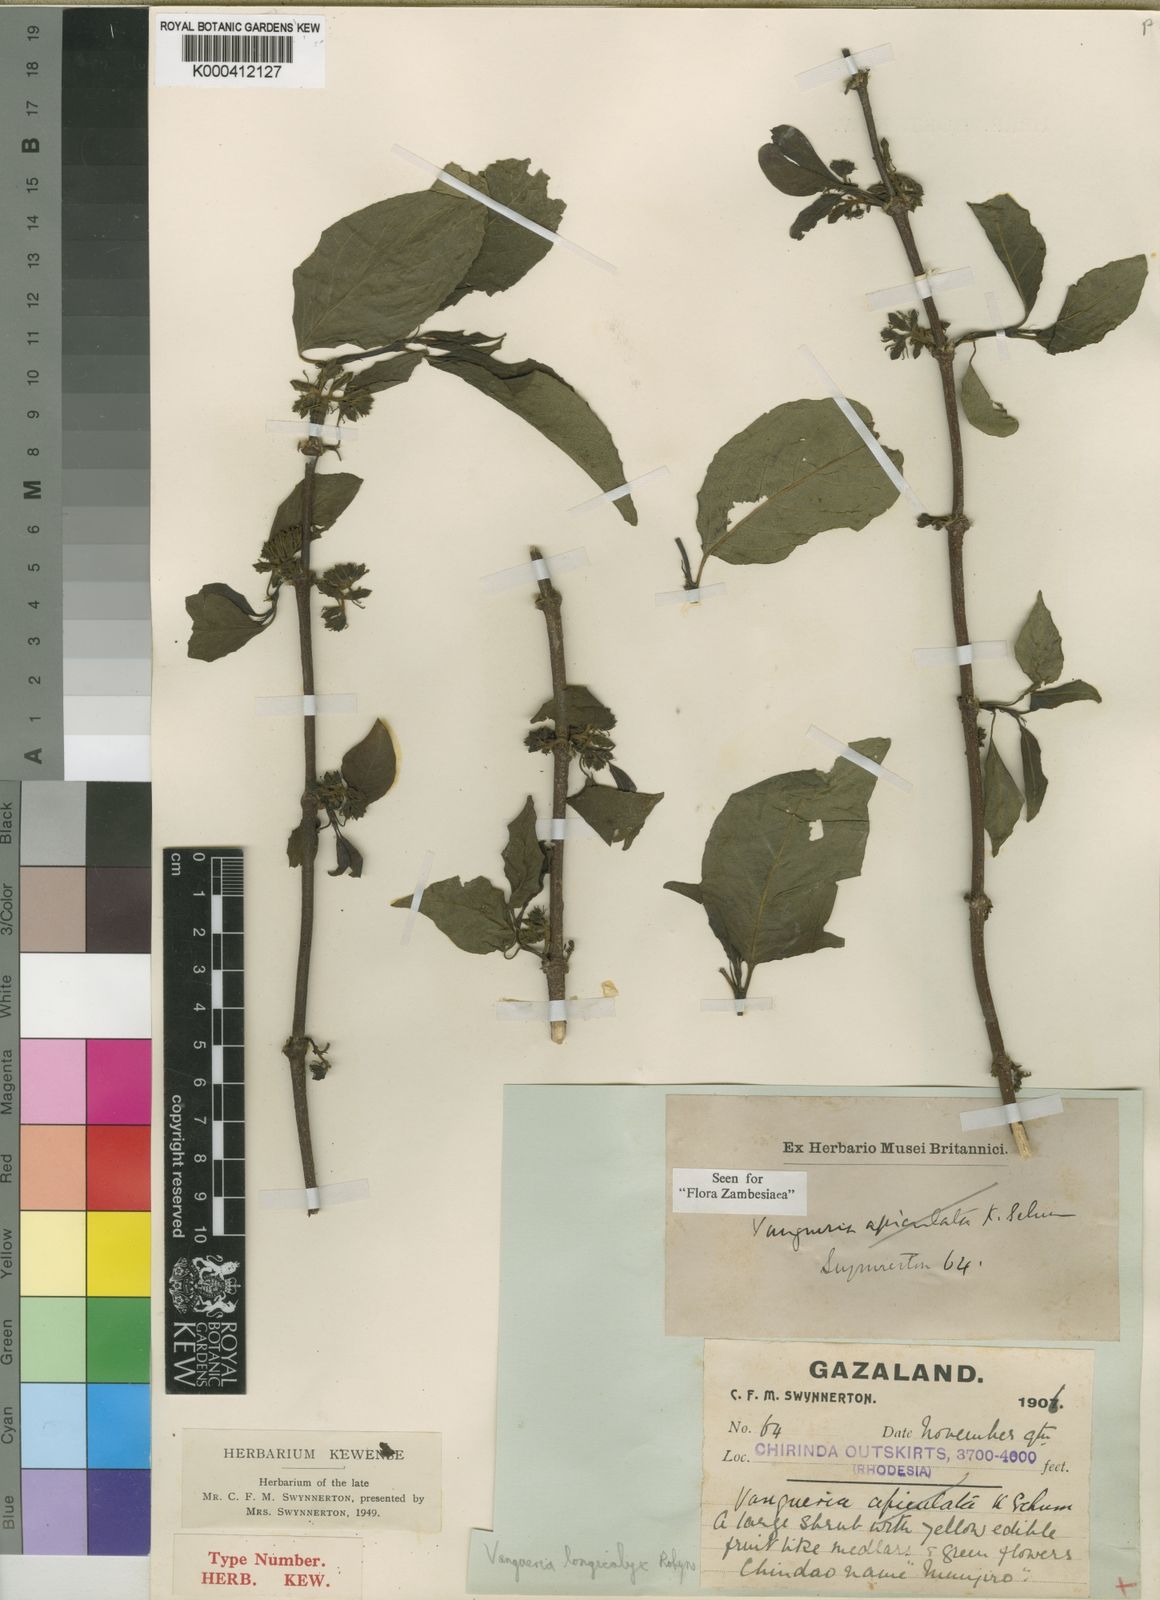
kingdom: Plantae
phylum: Tracheophyta
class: Magnoliopsida
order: Gentianales
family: Rubiaceae
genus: Vangueria
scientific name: Vangueria apiculata
